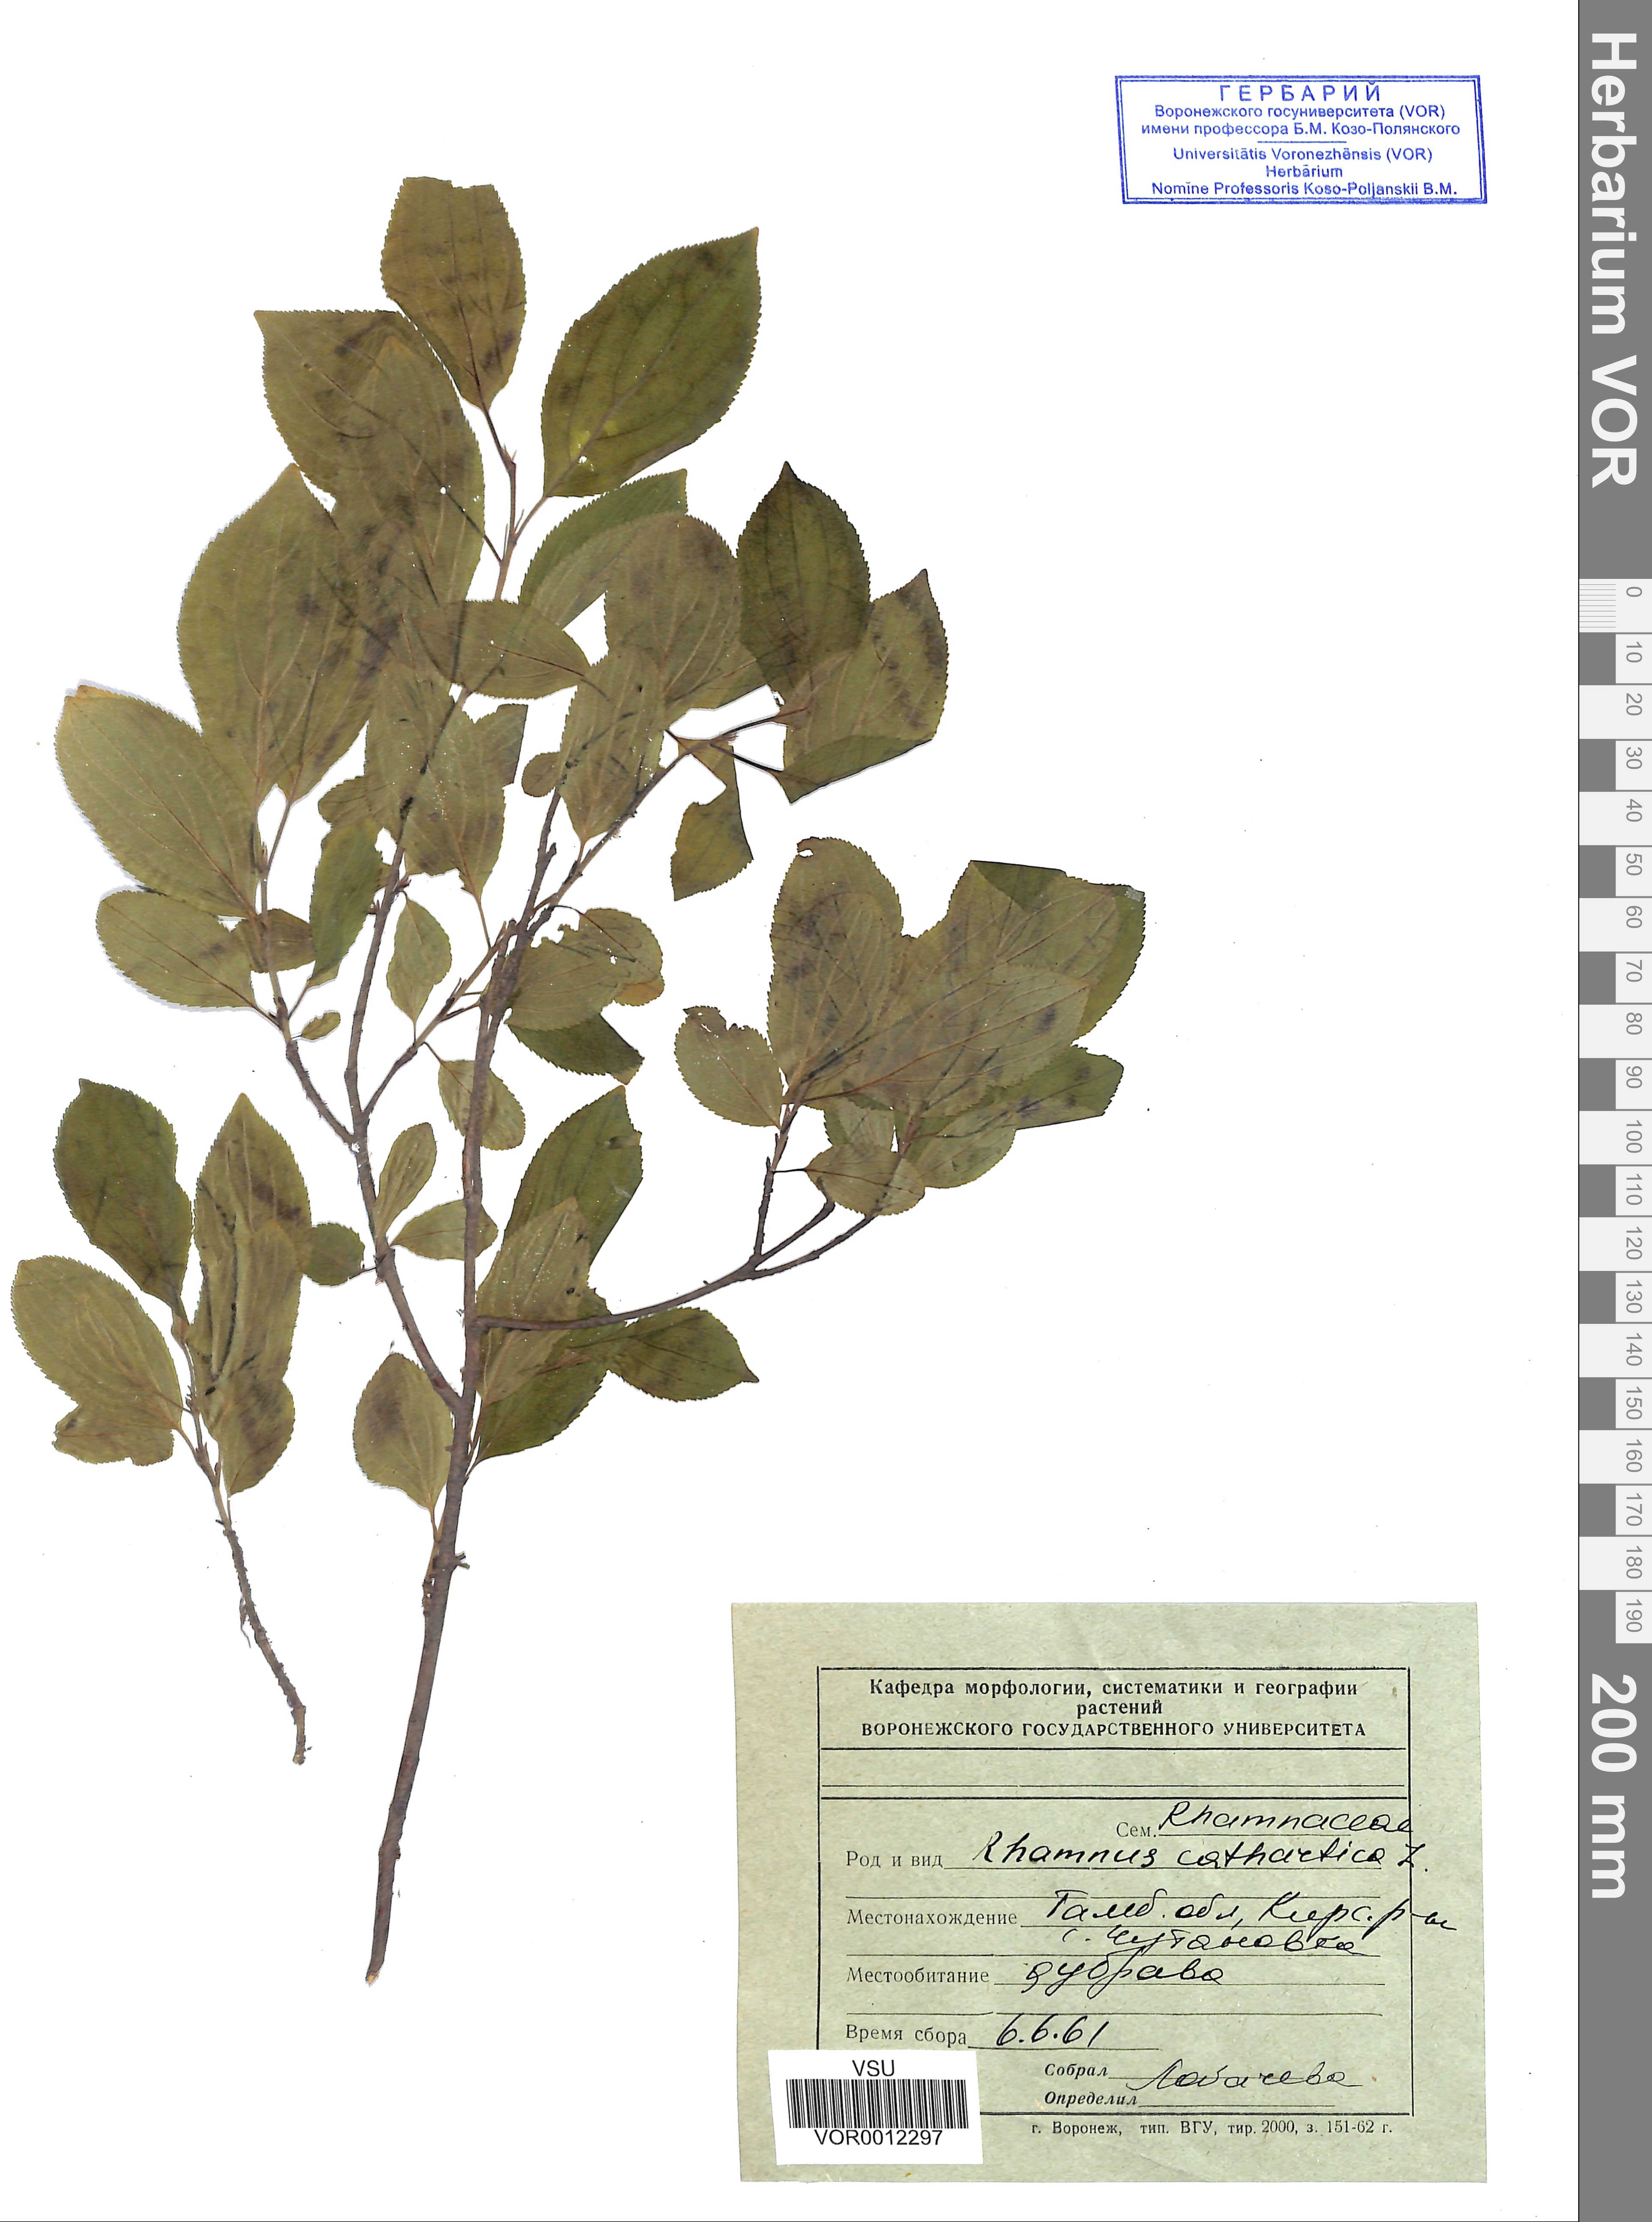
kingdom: Plantae
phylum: Tracheophyta
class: Magnoliopsida
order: Rosales
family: Rhamnaceae
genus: Rhamnus
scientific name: Rhamnus cathartica
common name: Common buckthorn
